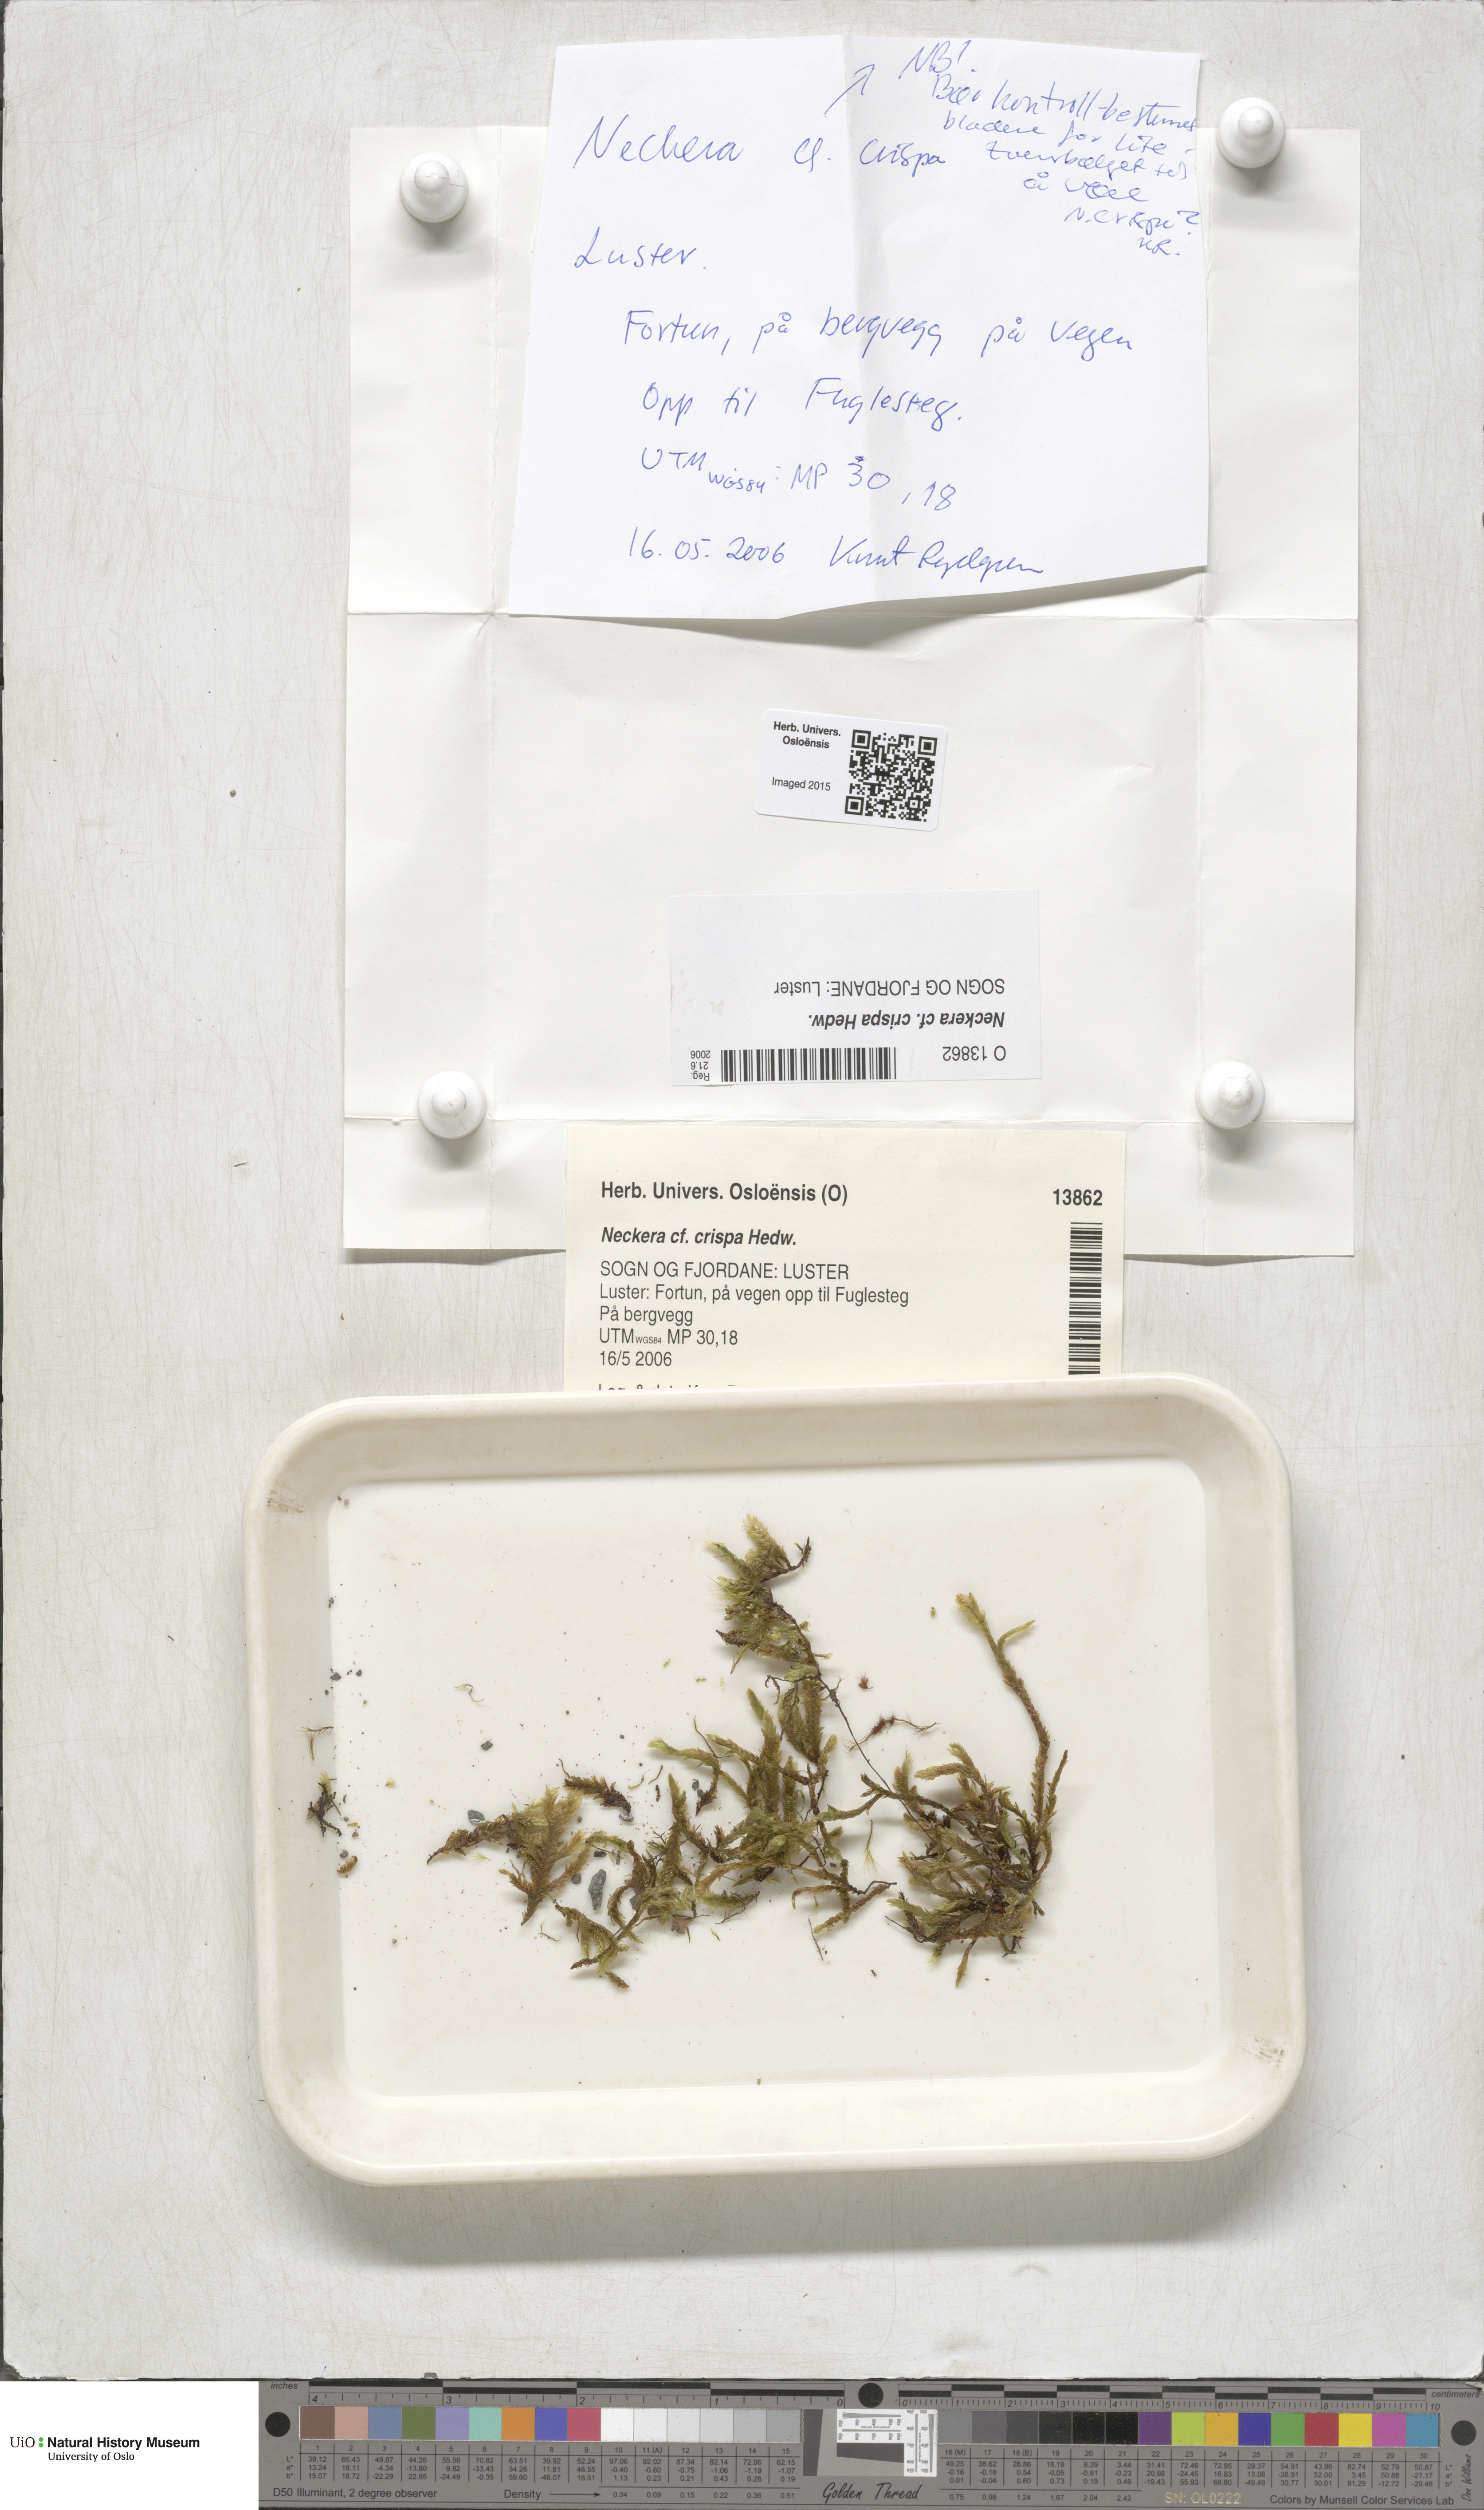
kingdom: Plantae
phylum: Bryophyta
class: Bryopsida
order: Hypnales
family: Neckeraceae
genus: Exsertotheca
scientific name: Exsertotheca crispa
